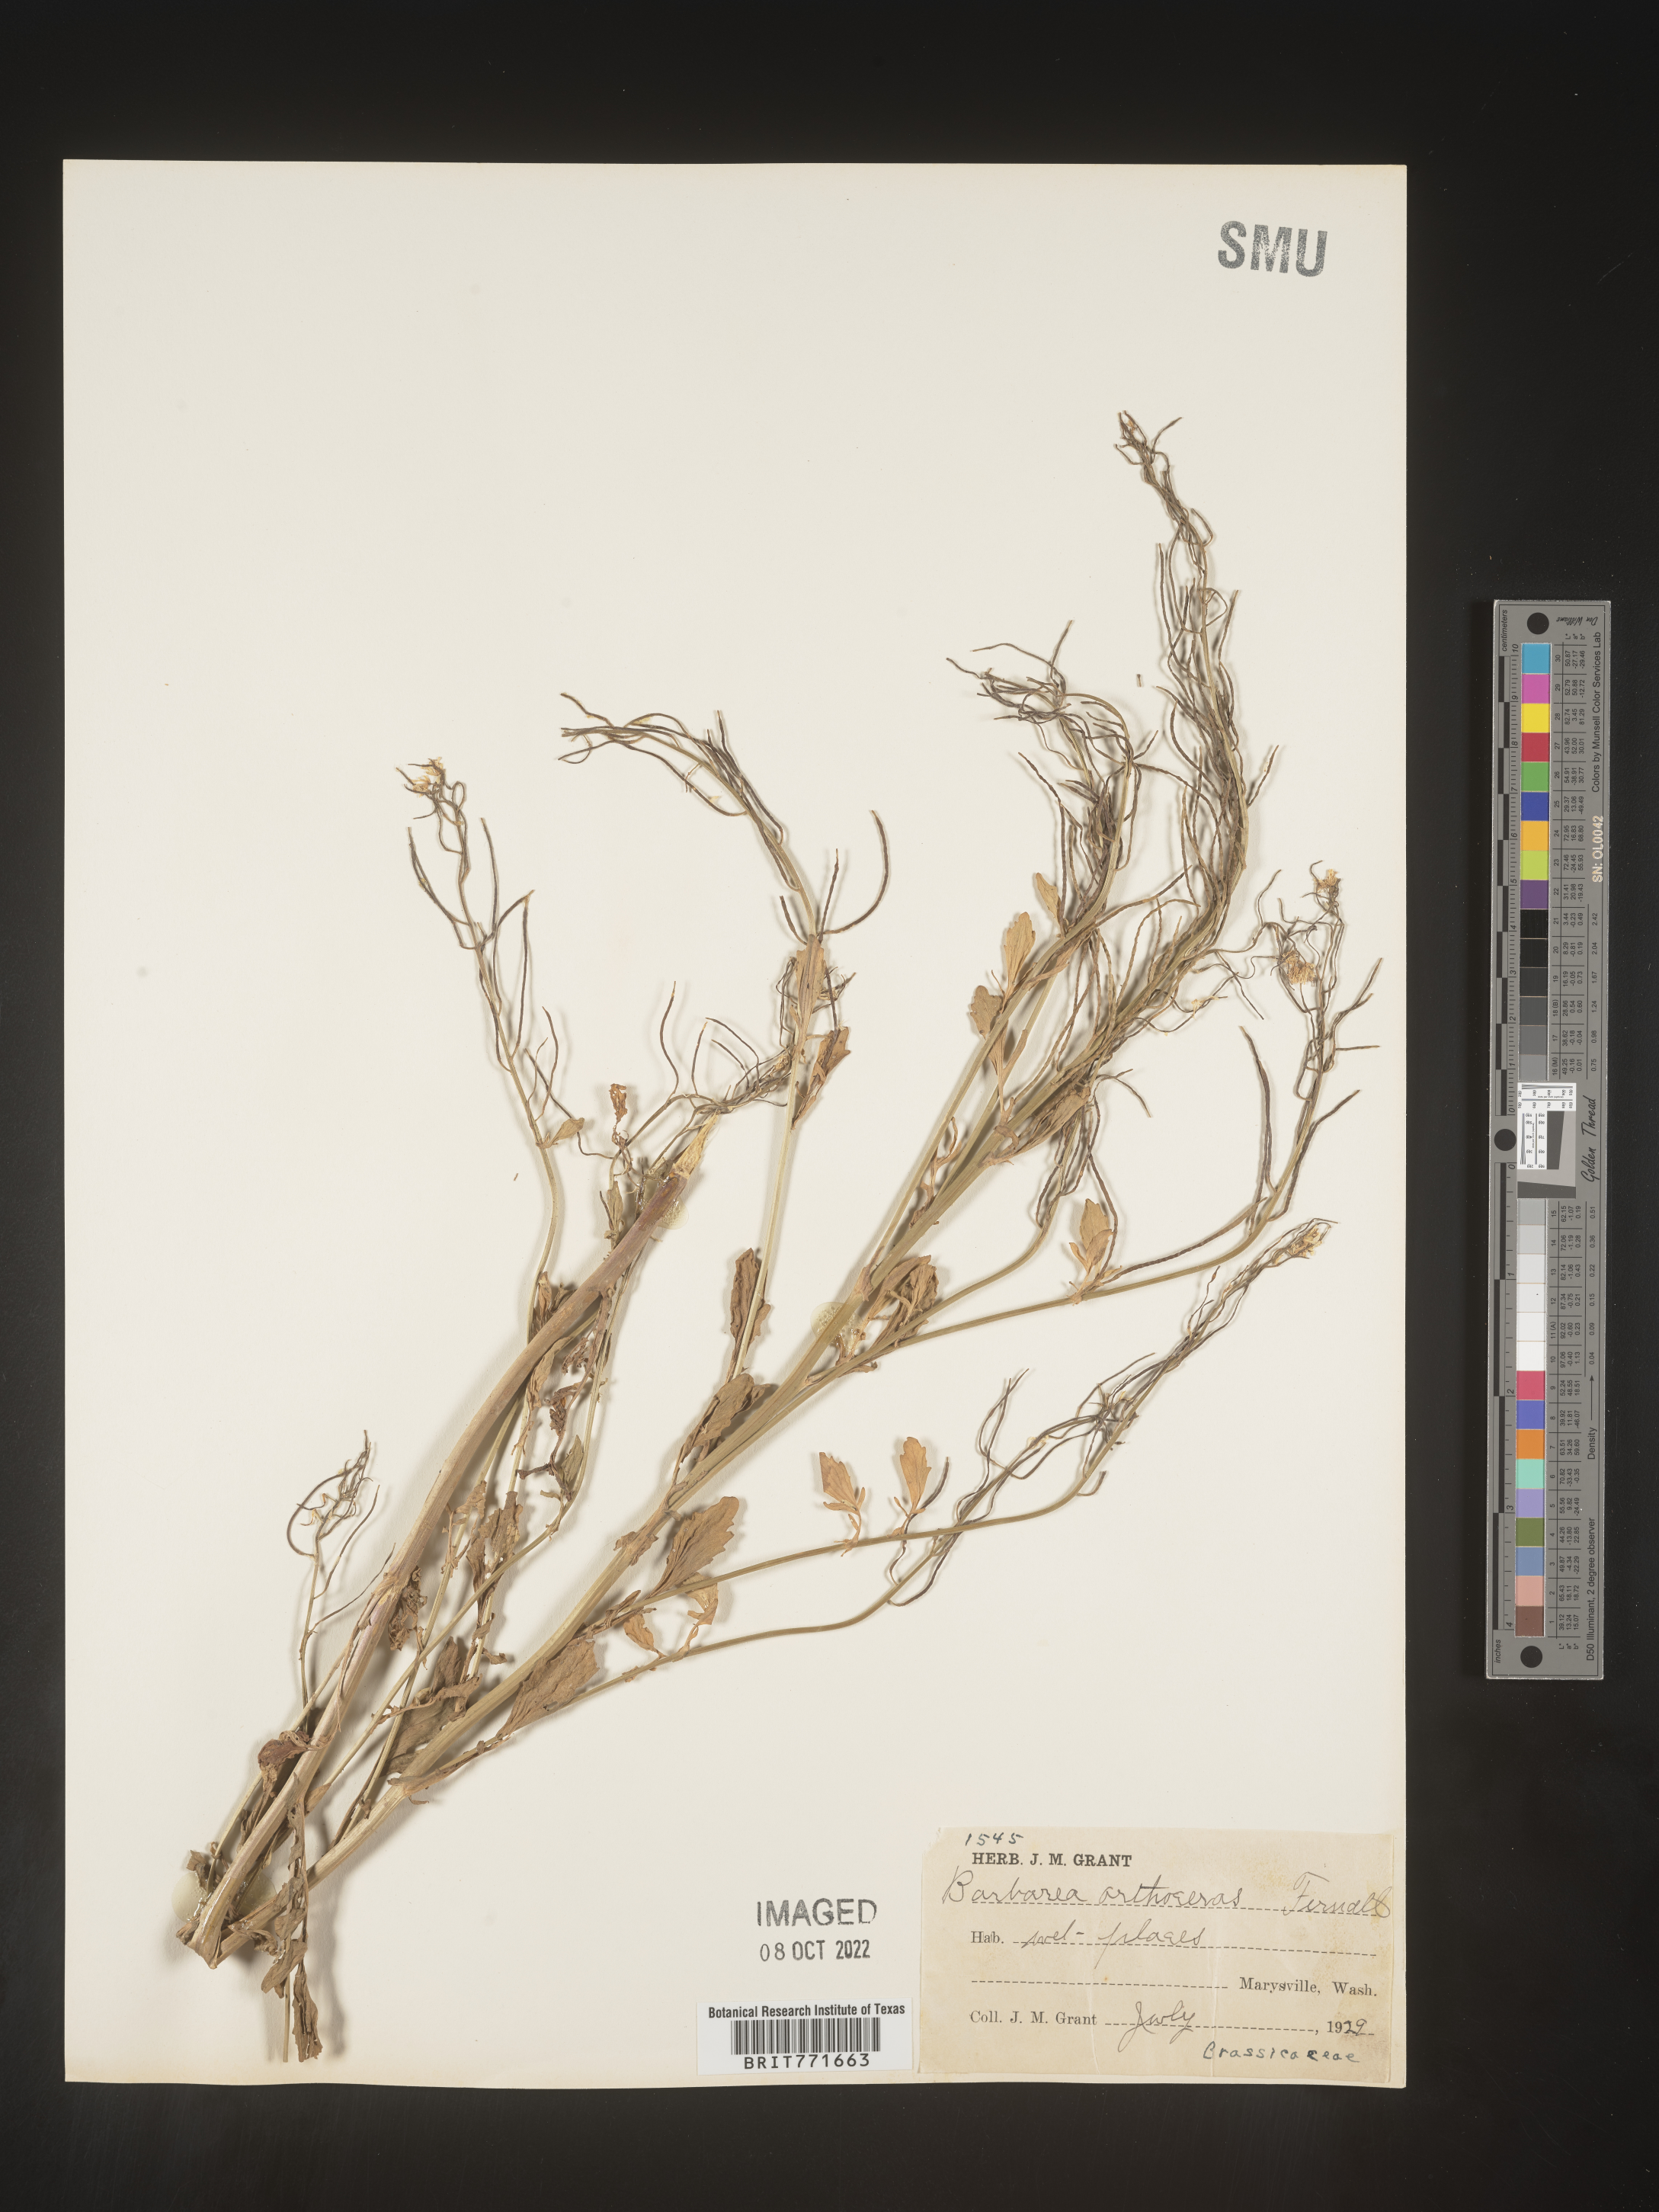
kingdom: Plantae
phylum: Tracheophyta
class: Magnoliopsida
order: Brassicales
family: Brassicaceae
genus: Barbarea
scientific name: Barbarea
